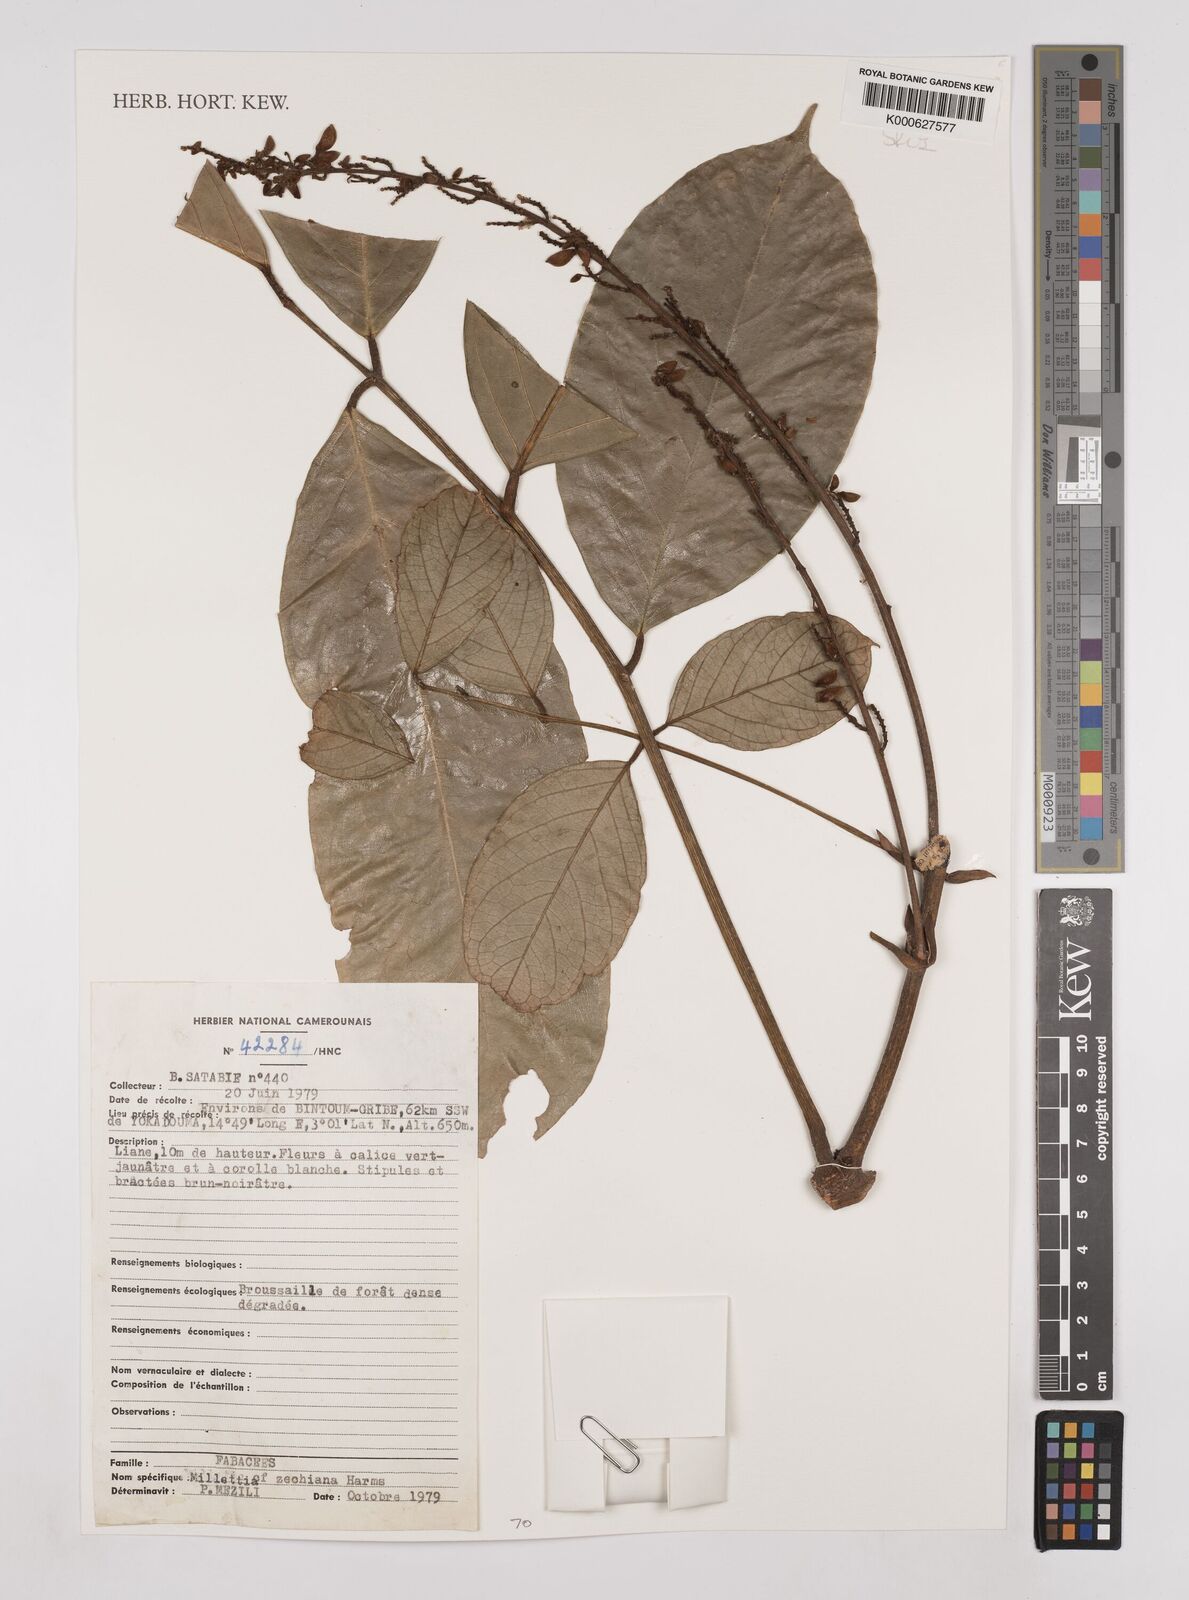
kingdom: Plantae
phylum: Tracheophyta
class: Magnoliopsida
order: Fabales
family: Fabaceae
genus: Millettia
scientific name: Millettia zechiana
